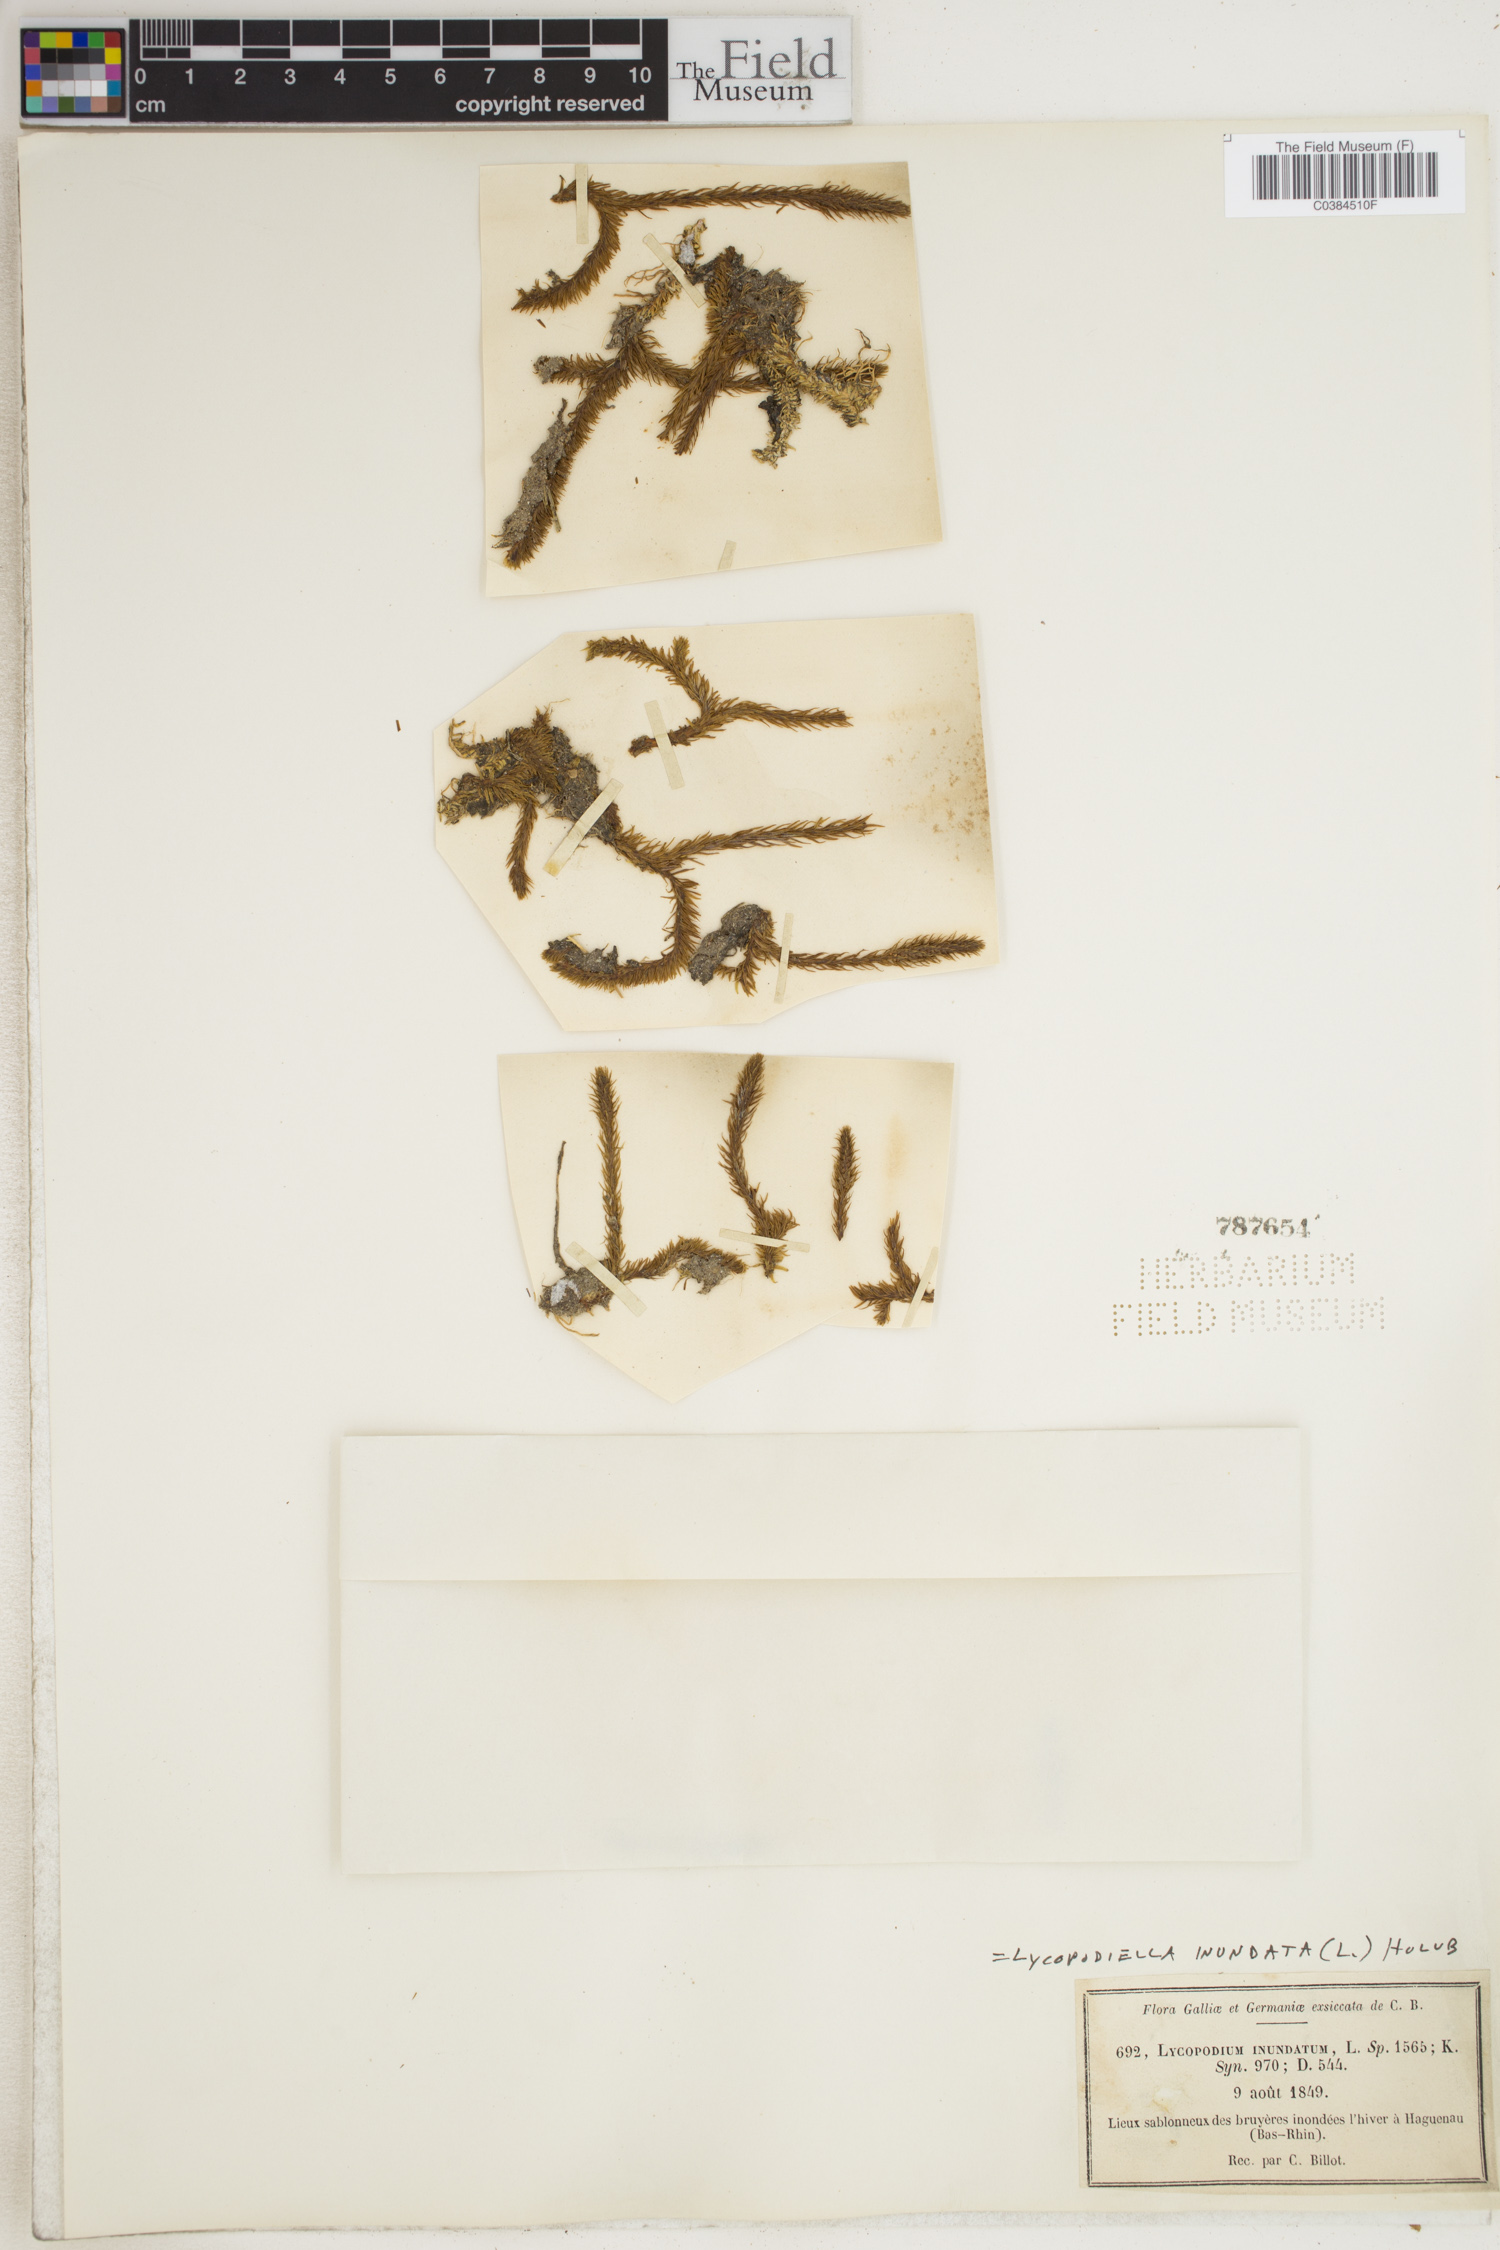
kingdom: Plantae
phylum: Tracheophyta
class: Lycopodiopsida
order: Lycopodiales
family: Lycopodiaceae
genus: Lycopodiella
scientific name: Lycopodiella inundata
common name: Marsh clubmoss
